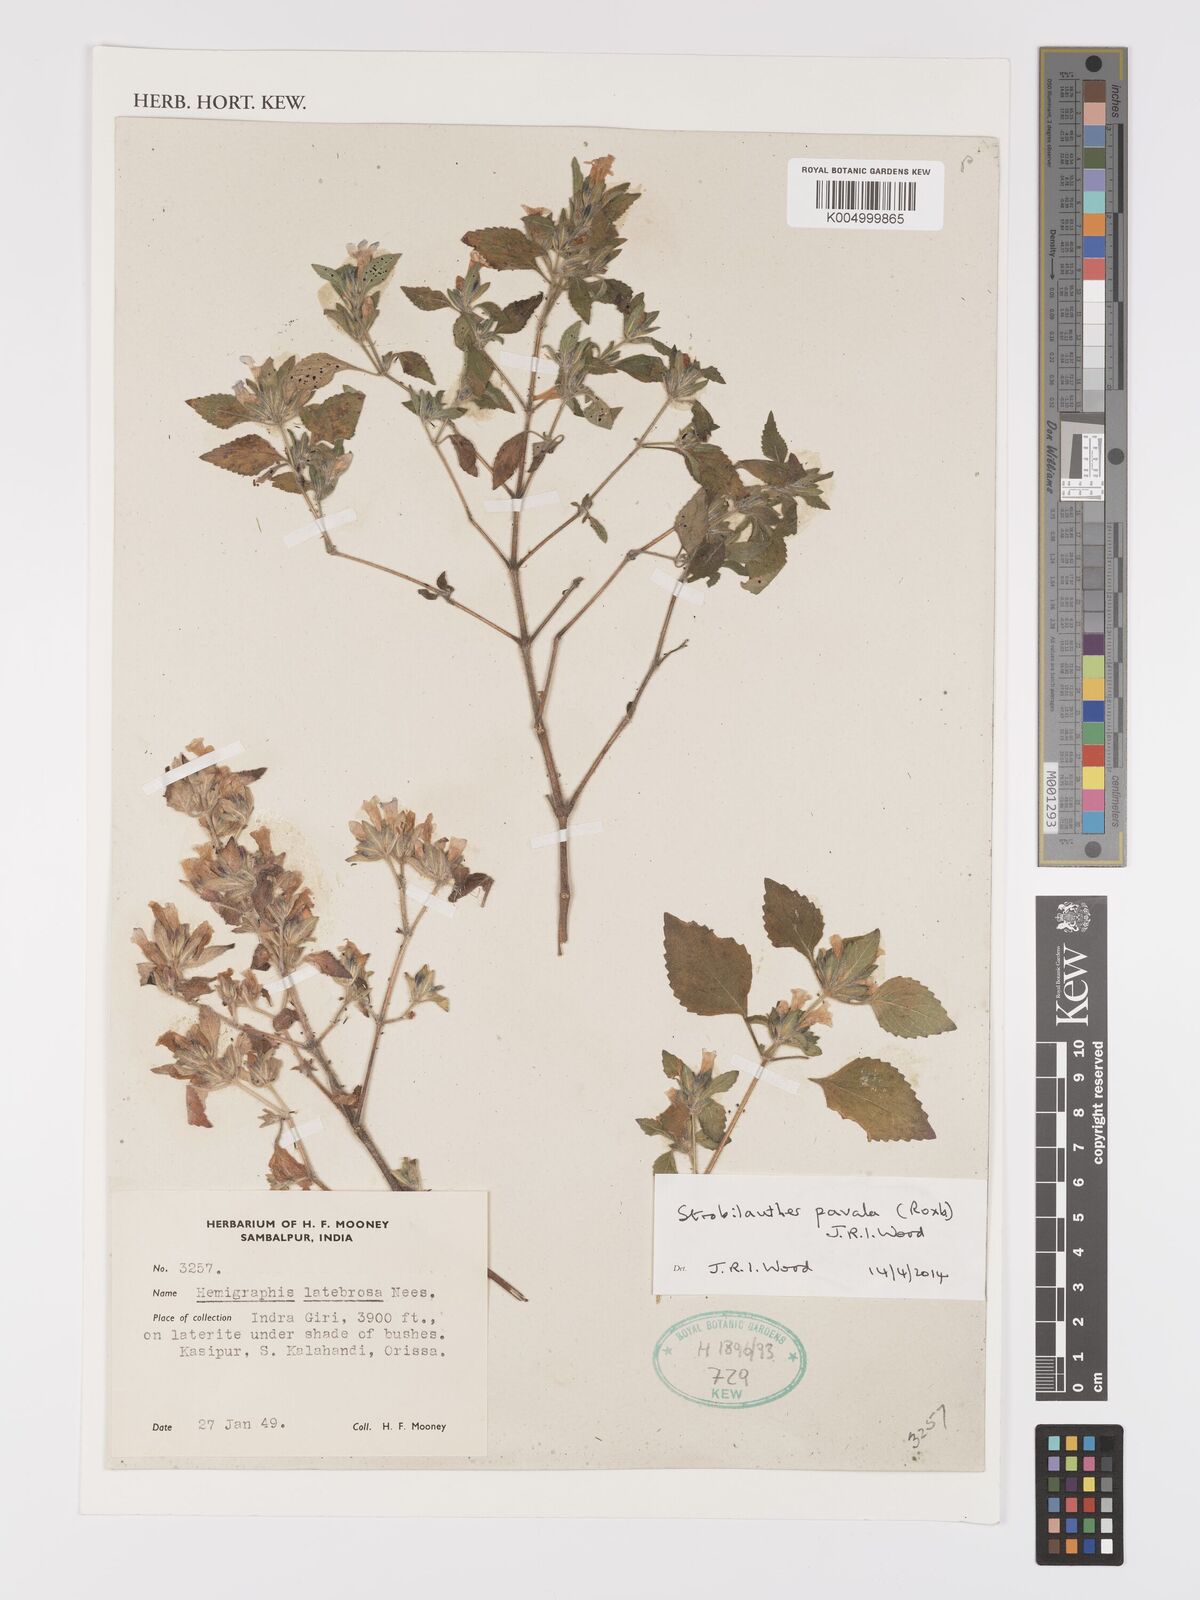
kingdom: Plantae
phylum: Tracheophyta
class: Magnoliopsida
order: Lamiales
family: Acanthaceae
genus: Strobilanthes
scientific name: Strobilanthes pavala
